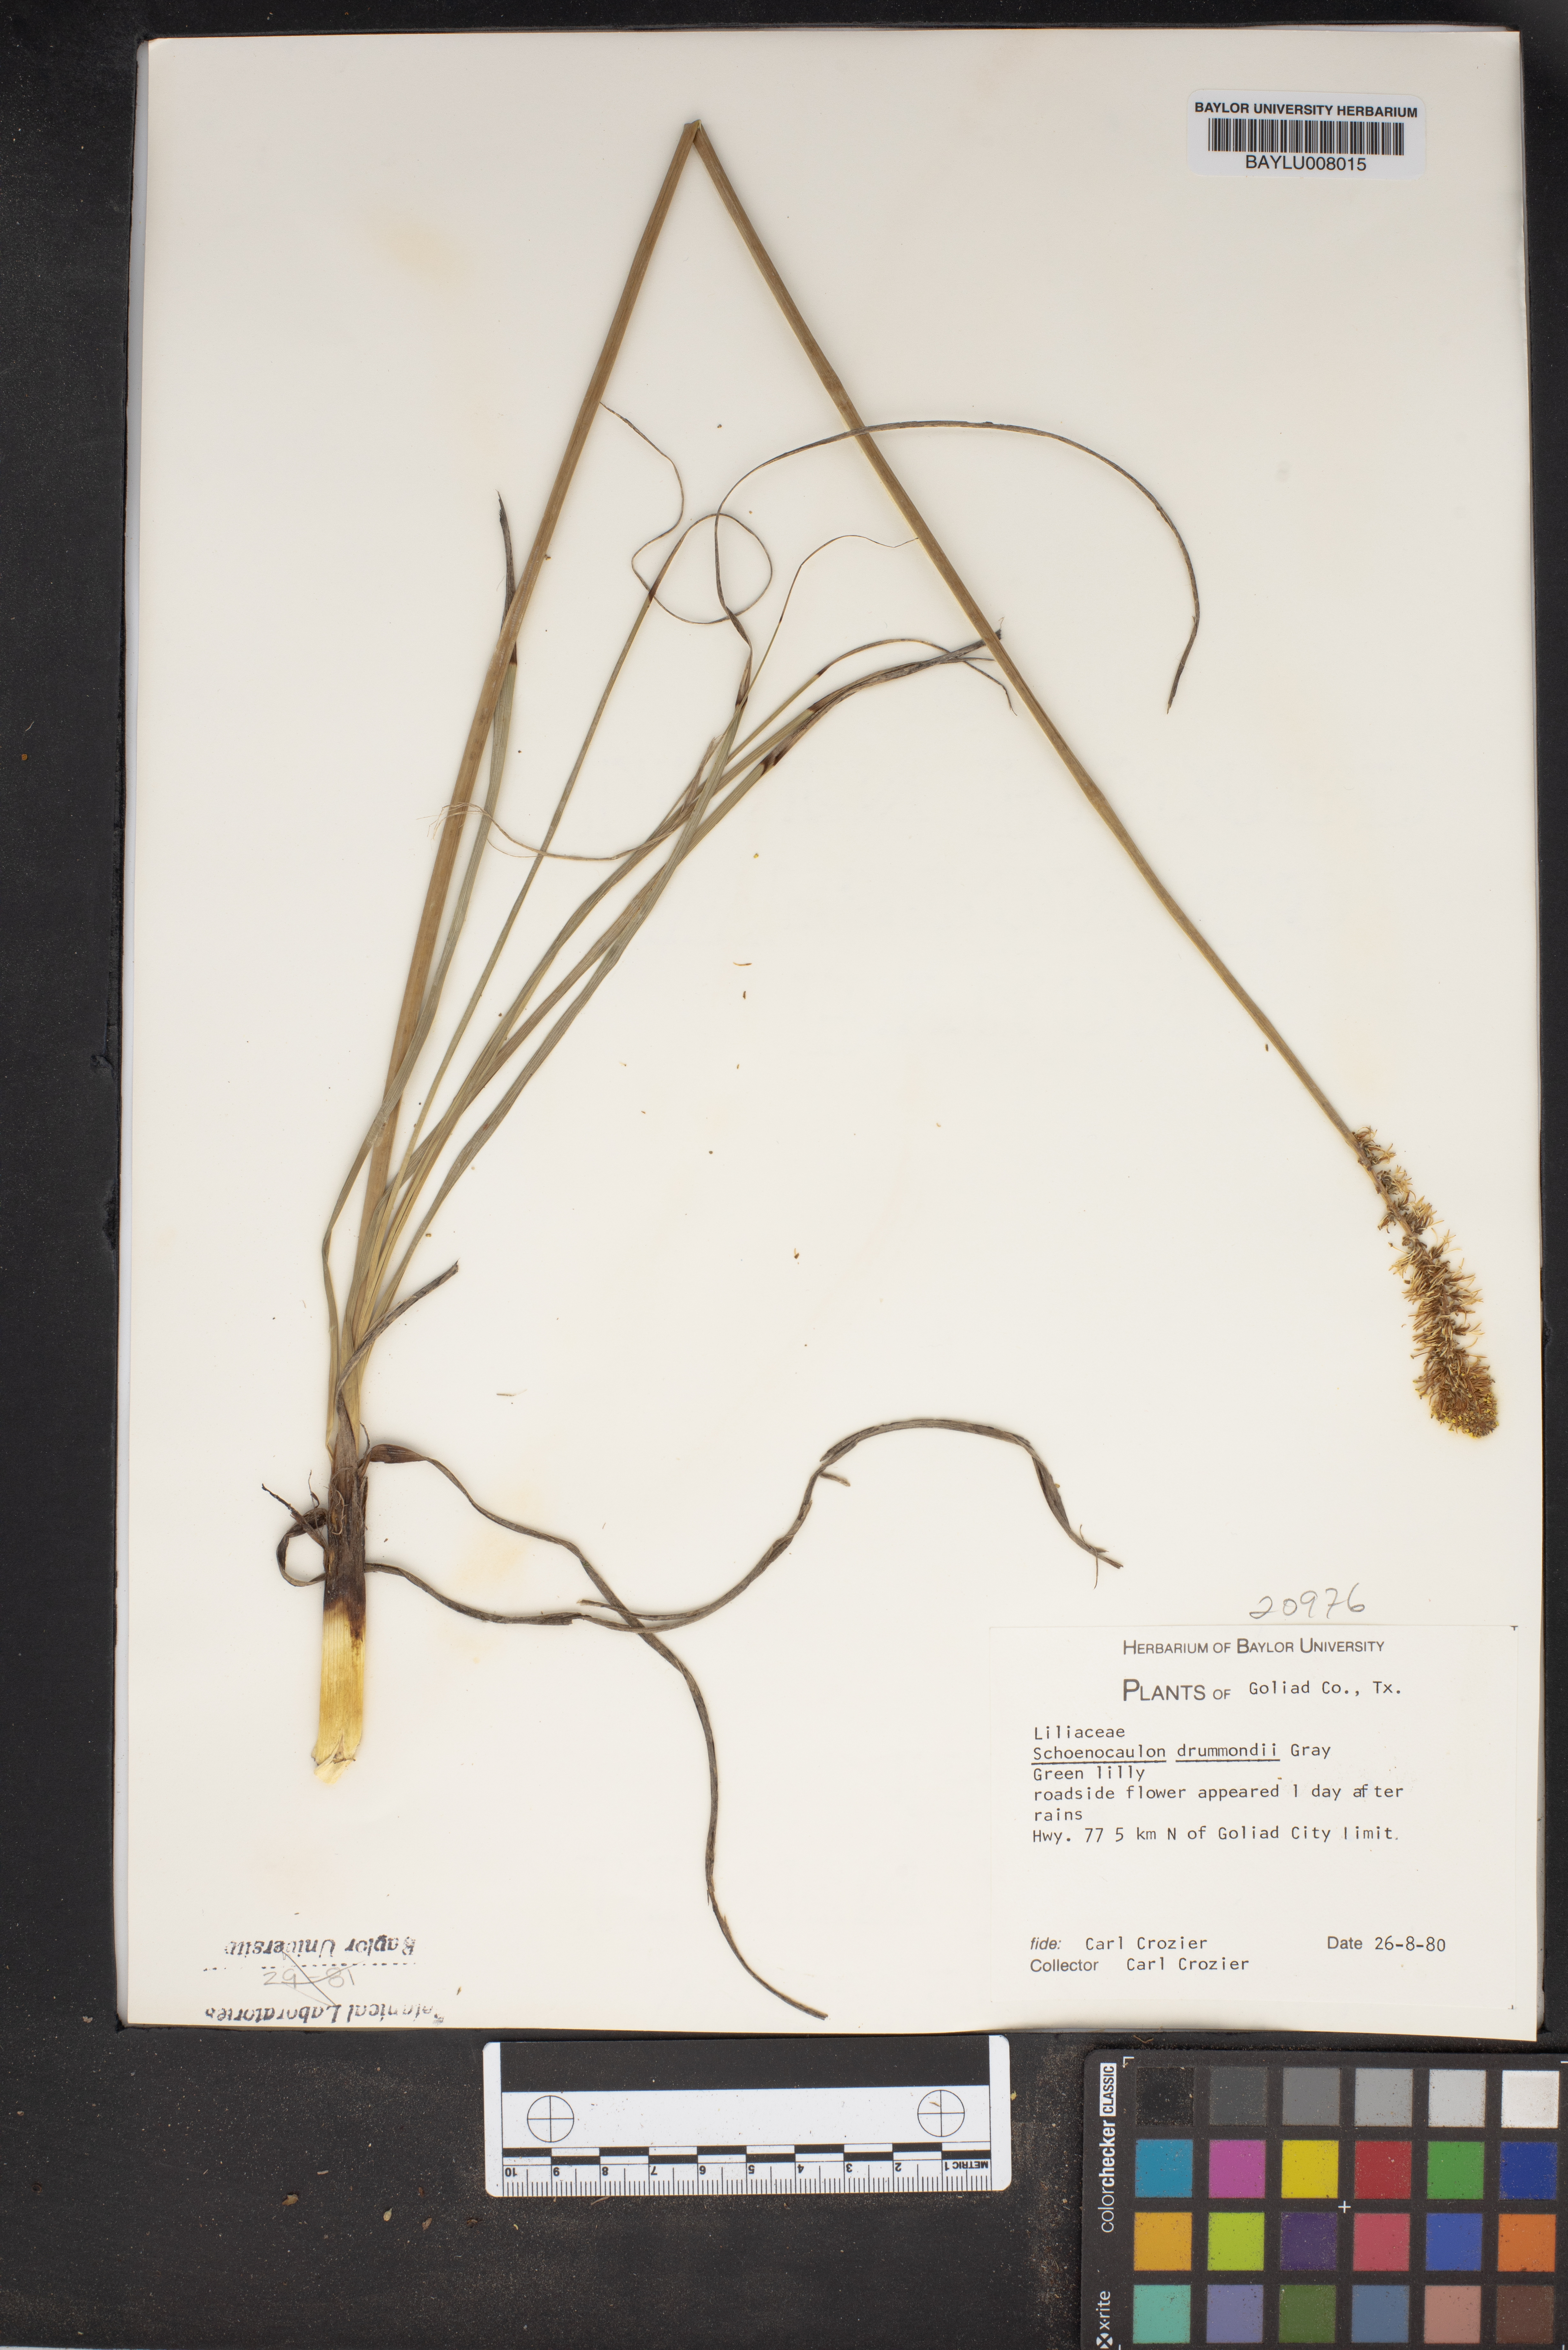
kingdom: Plantae
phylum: Tracheophyta
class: Liliopsida
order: Liliales
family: Melanthiaceae
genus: Schoenocaulon
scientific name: Schoenocaulon ghiesbreghtii
